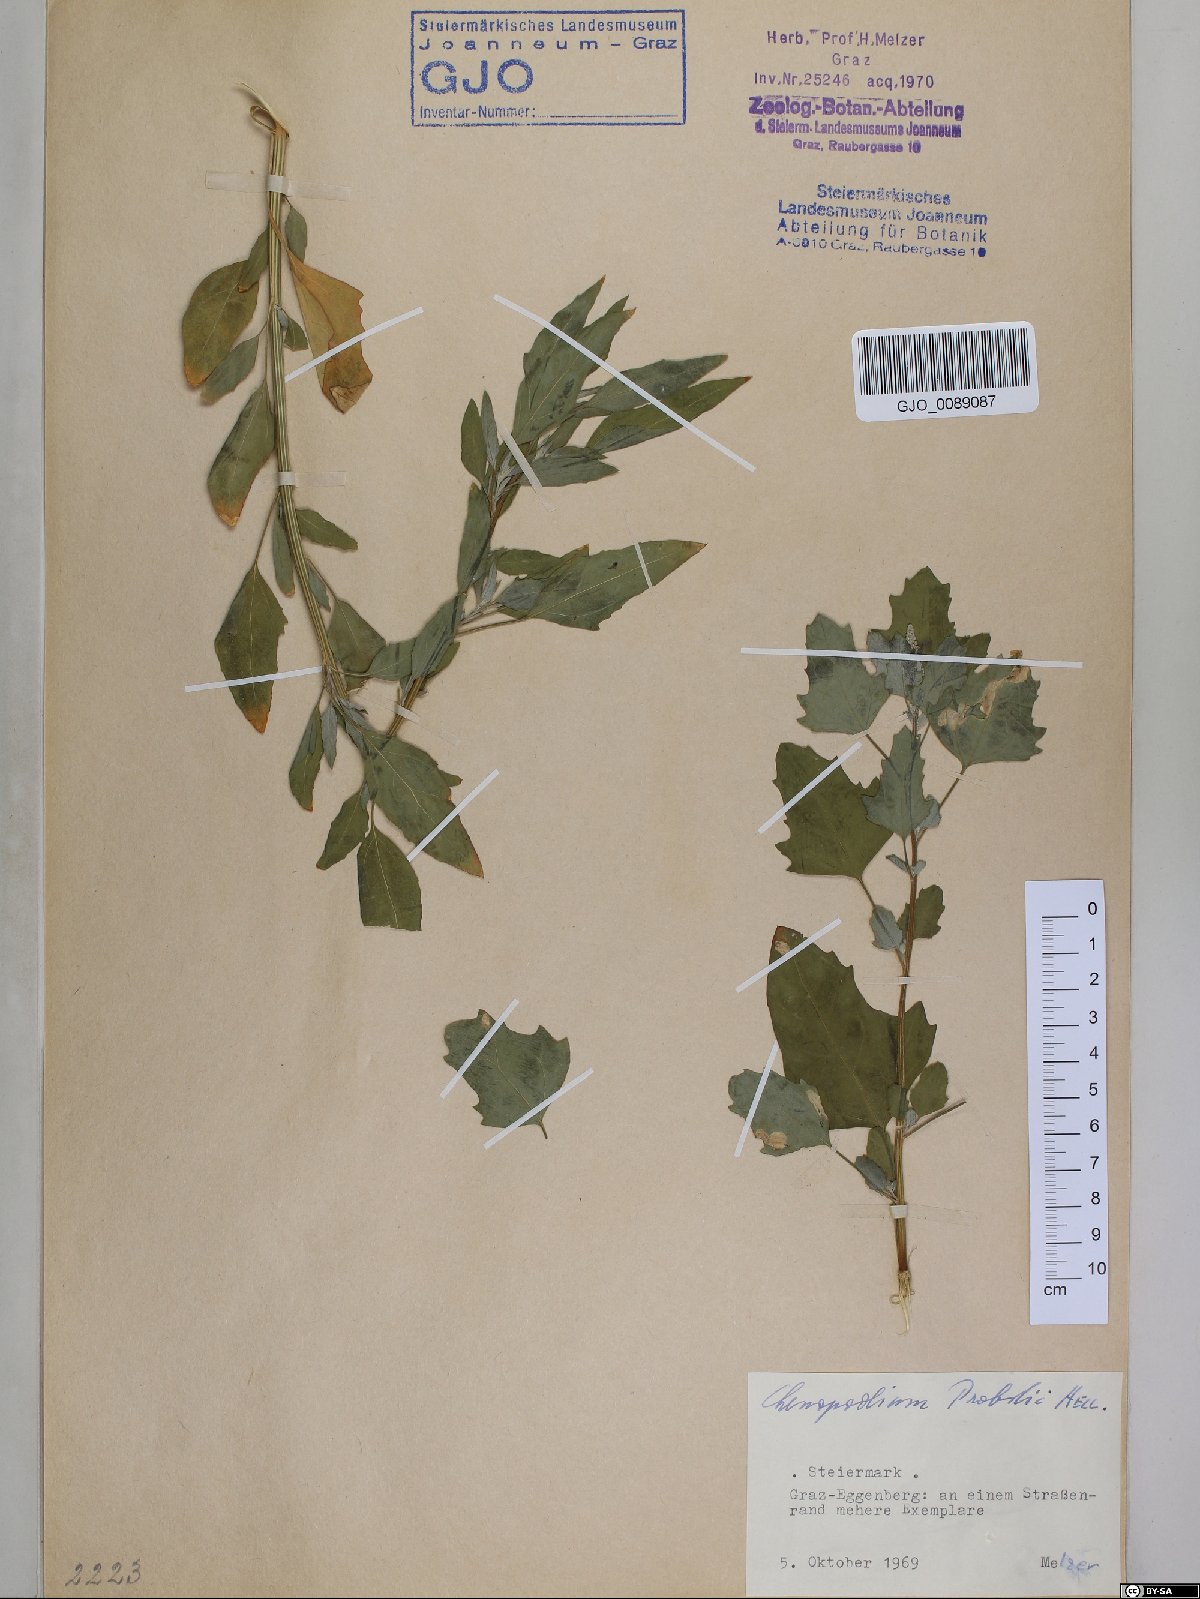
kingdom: Plantae
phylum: Tracheophyta
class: Magnoliopsida
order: Caryophyllales
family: Amaranthaceae
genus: Chenopodium
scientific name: Chenopodium probstii
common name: Probst's goosefoot
